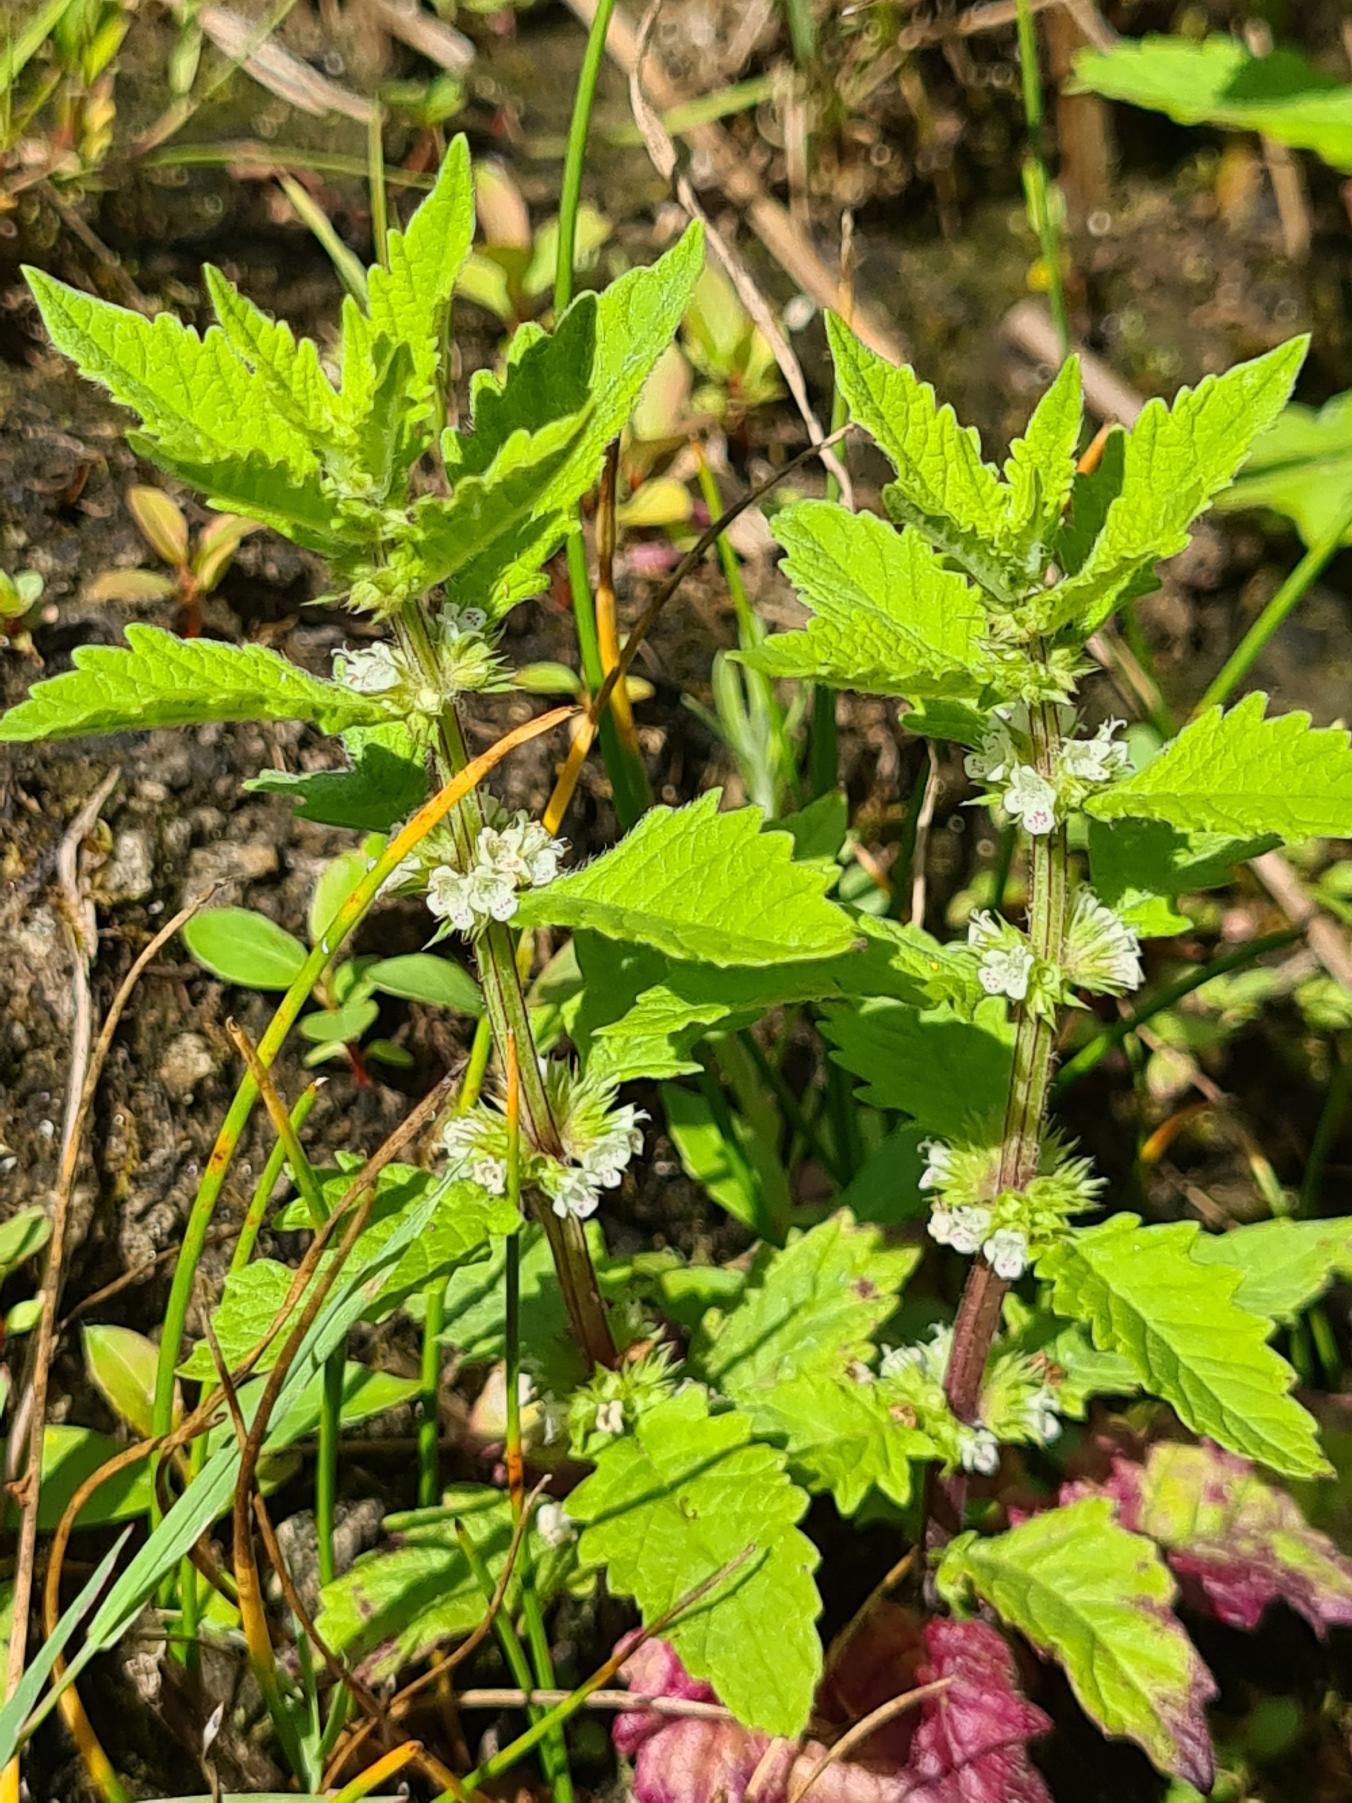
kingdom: Plantae
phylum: Tracheophyta
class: Magnoliopsida
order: Lamiales
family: Lamiaceae
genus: Lycopus
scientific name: Lycopus europaeus
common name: Sværtevæld
